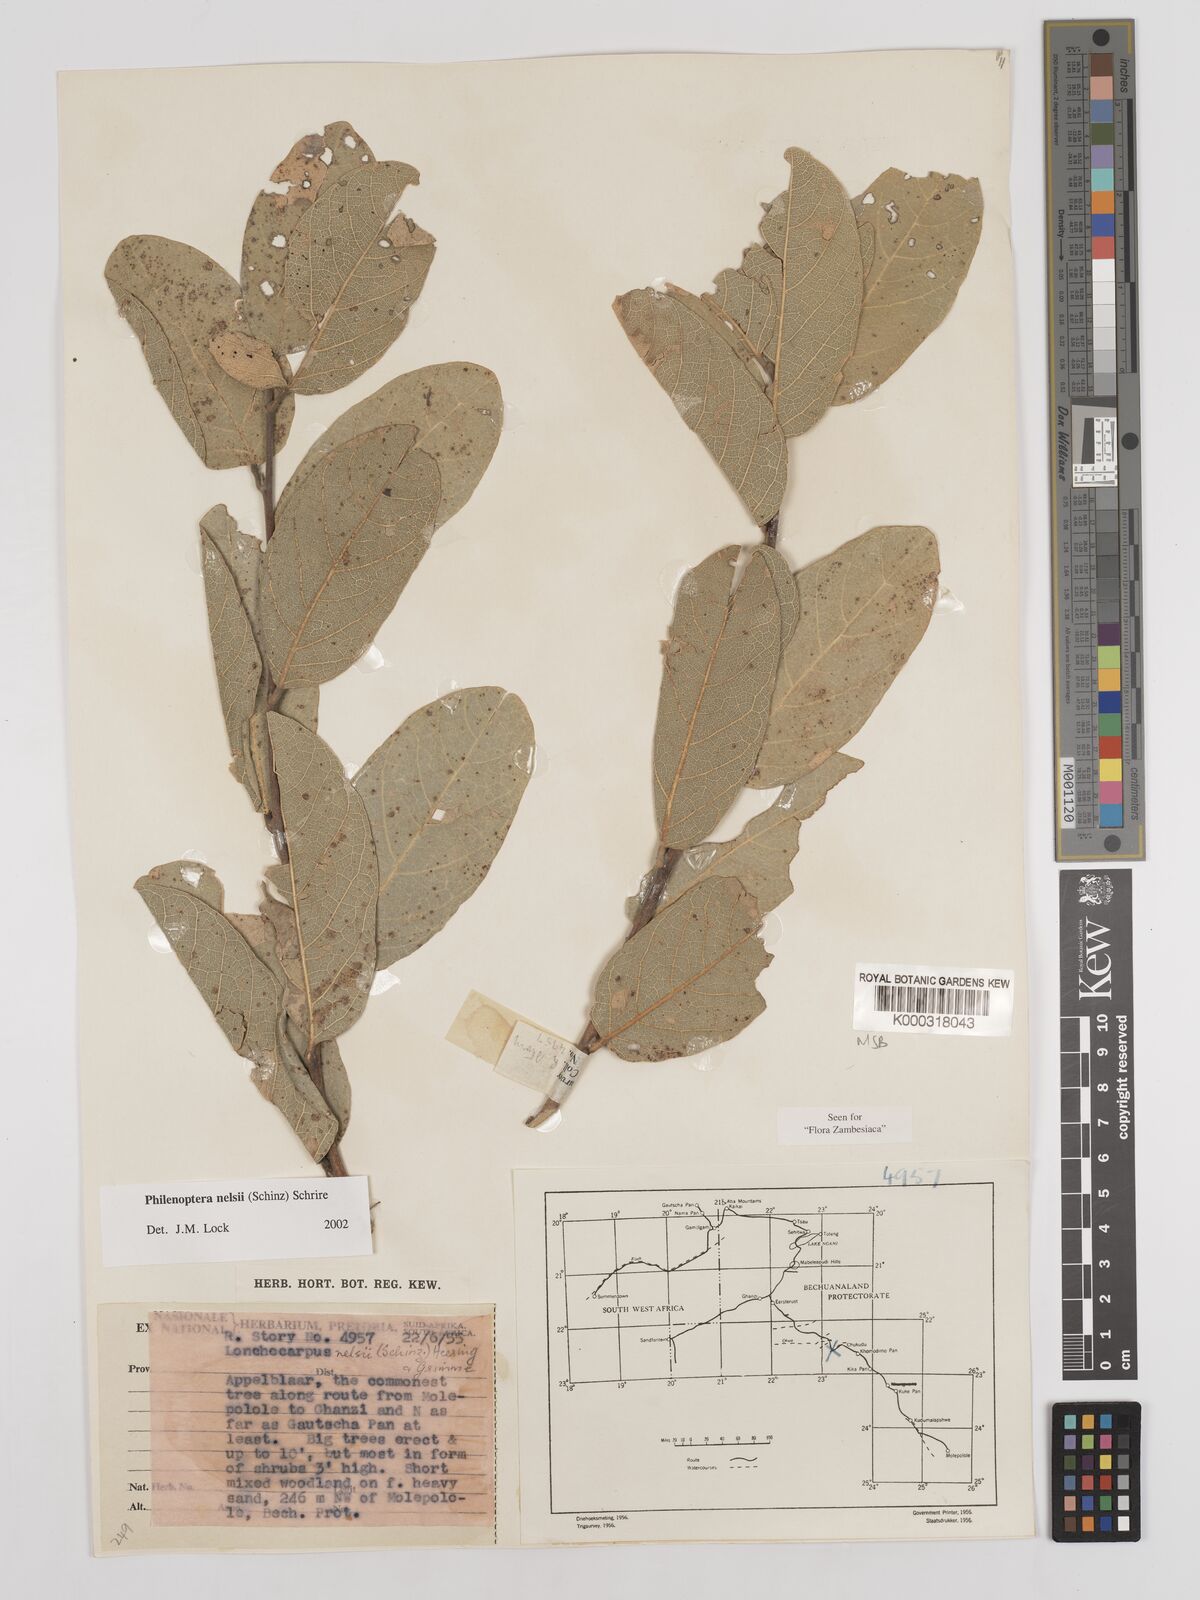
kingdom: Plantae
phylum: Tracheophyta
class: Magnoliopsida
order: Fabales
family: Fabaceae
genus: Philenoptera
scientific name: Philenoptera nelsii
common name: Kalahari apple-leaf
